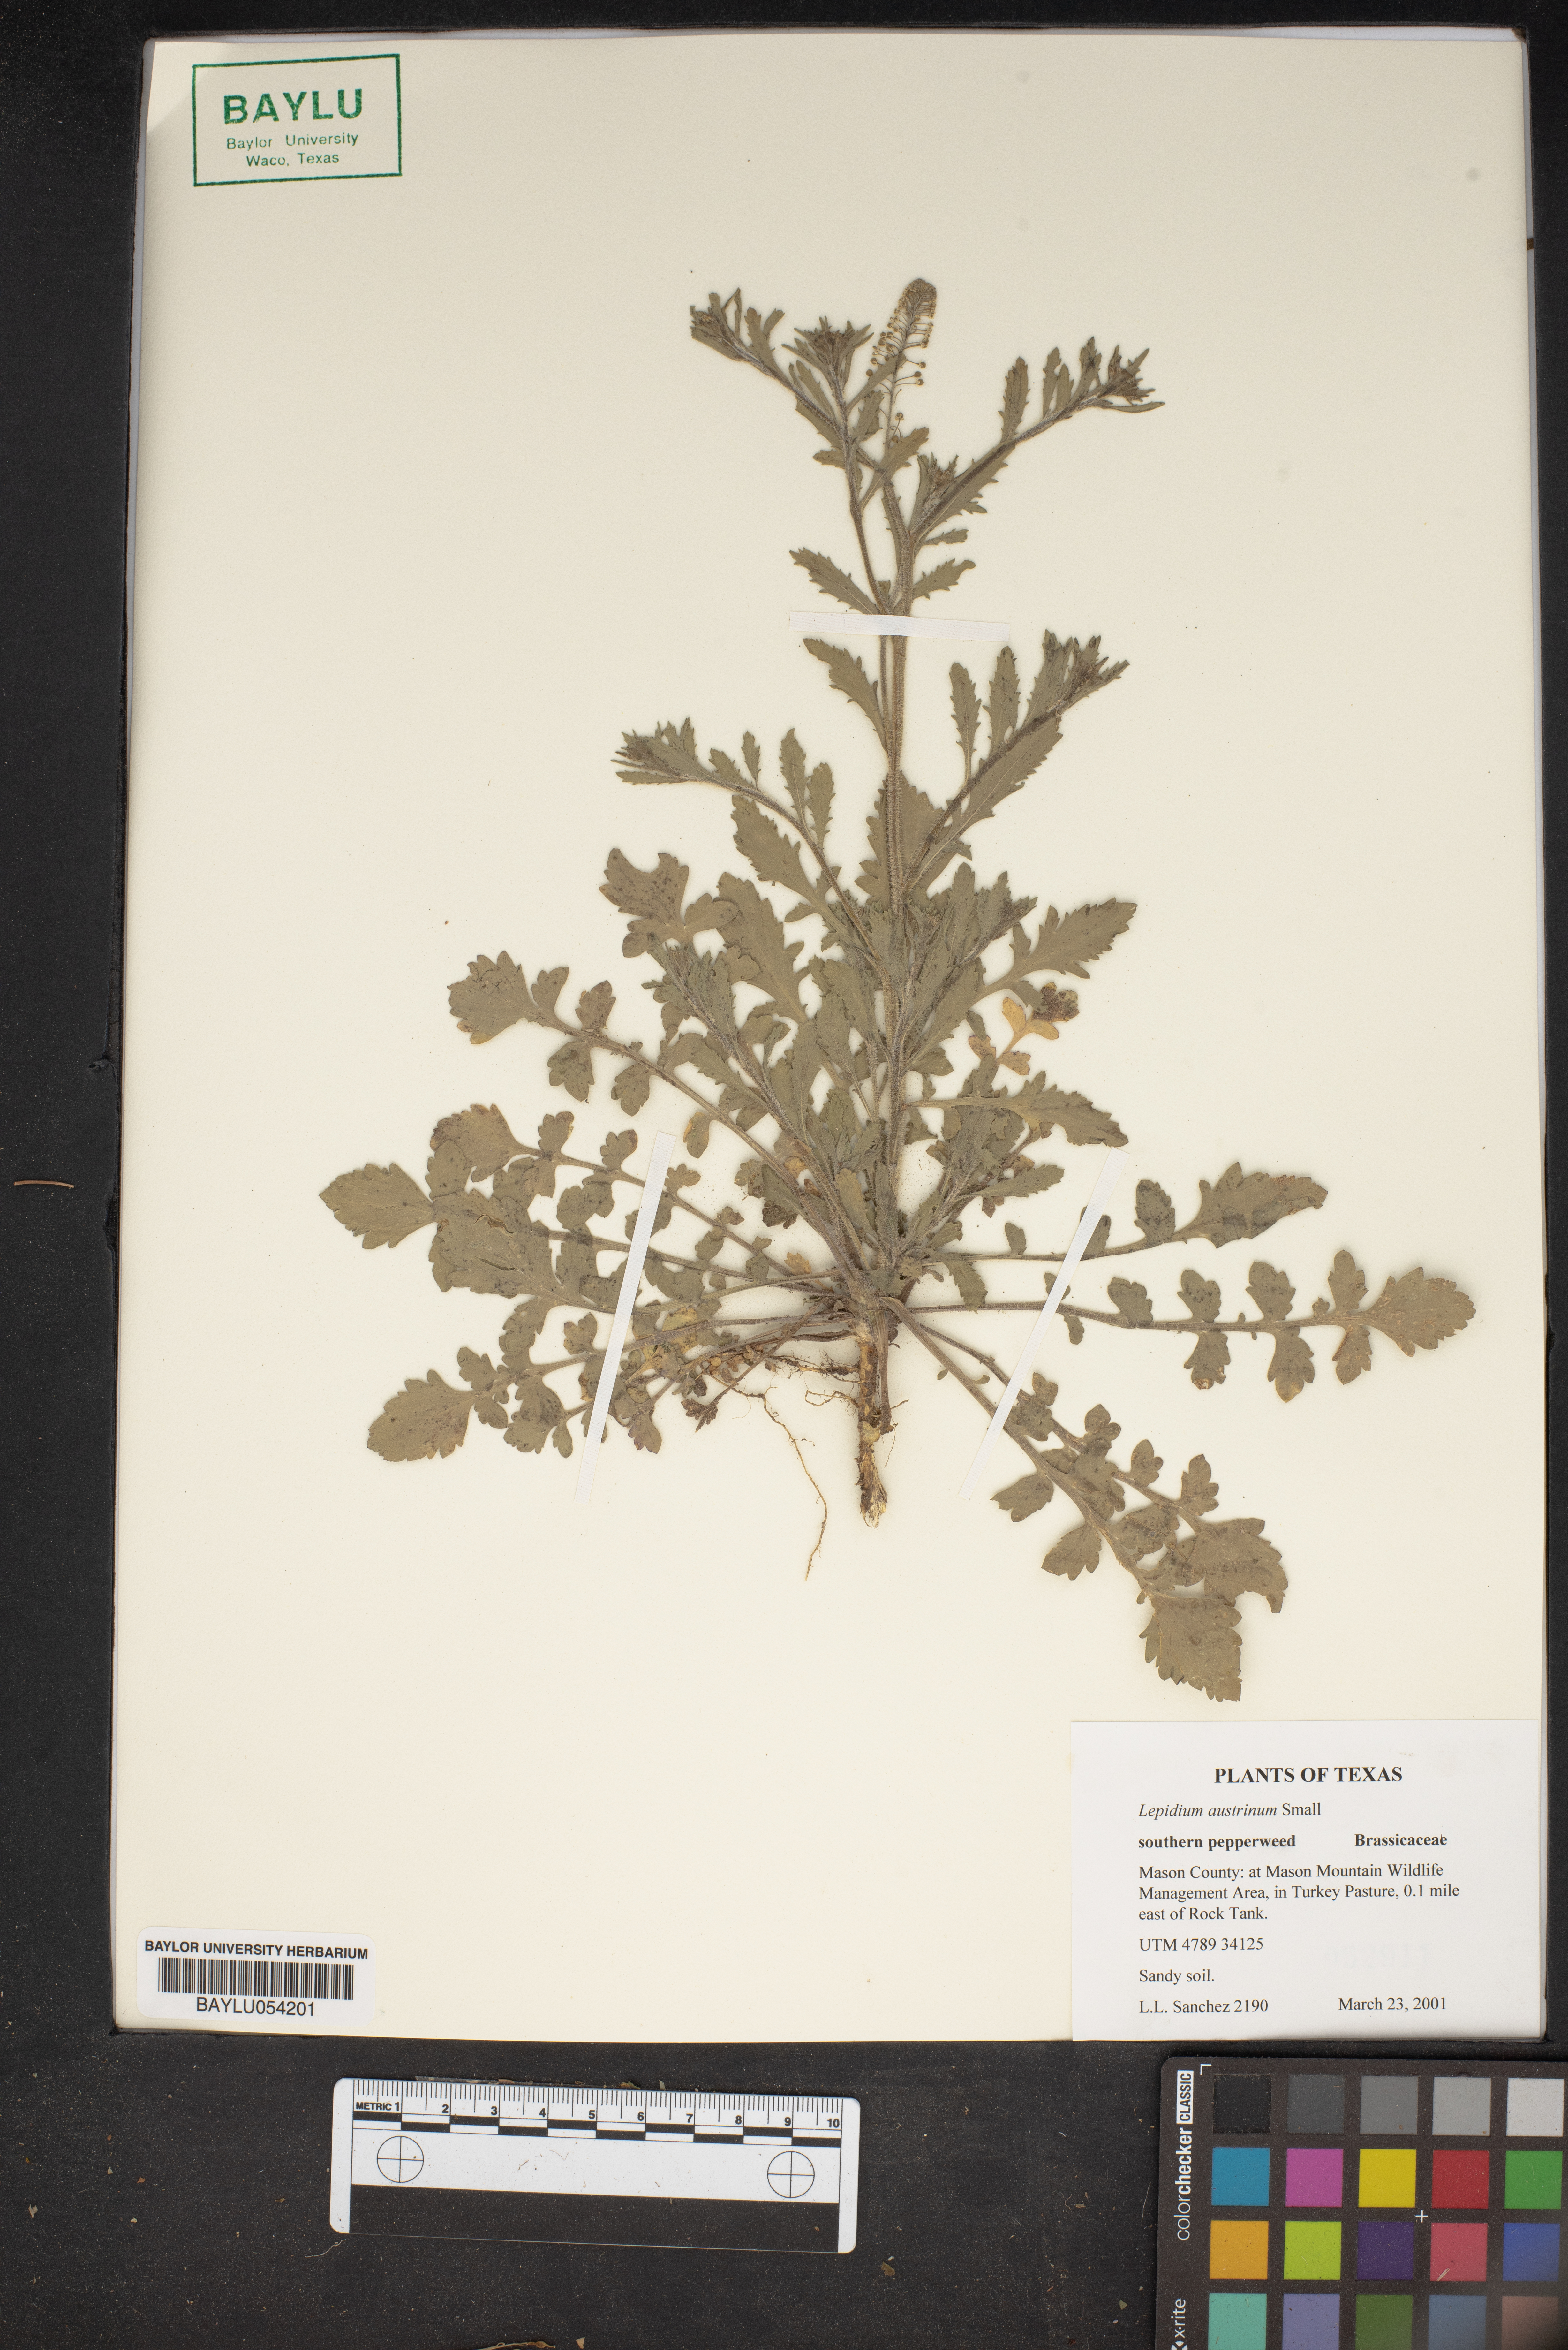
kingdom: Plantae
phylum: Tracheophyta
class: Magnoliopsida
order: Brassicales
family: Brassicaceae
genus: Lepidium
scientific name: Lepidium austrinum
